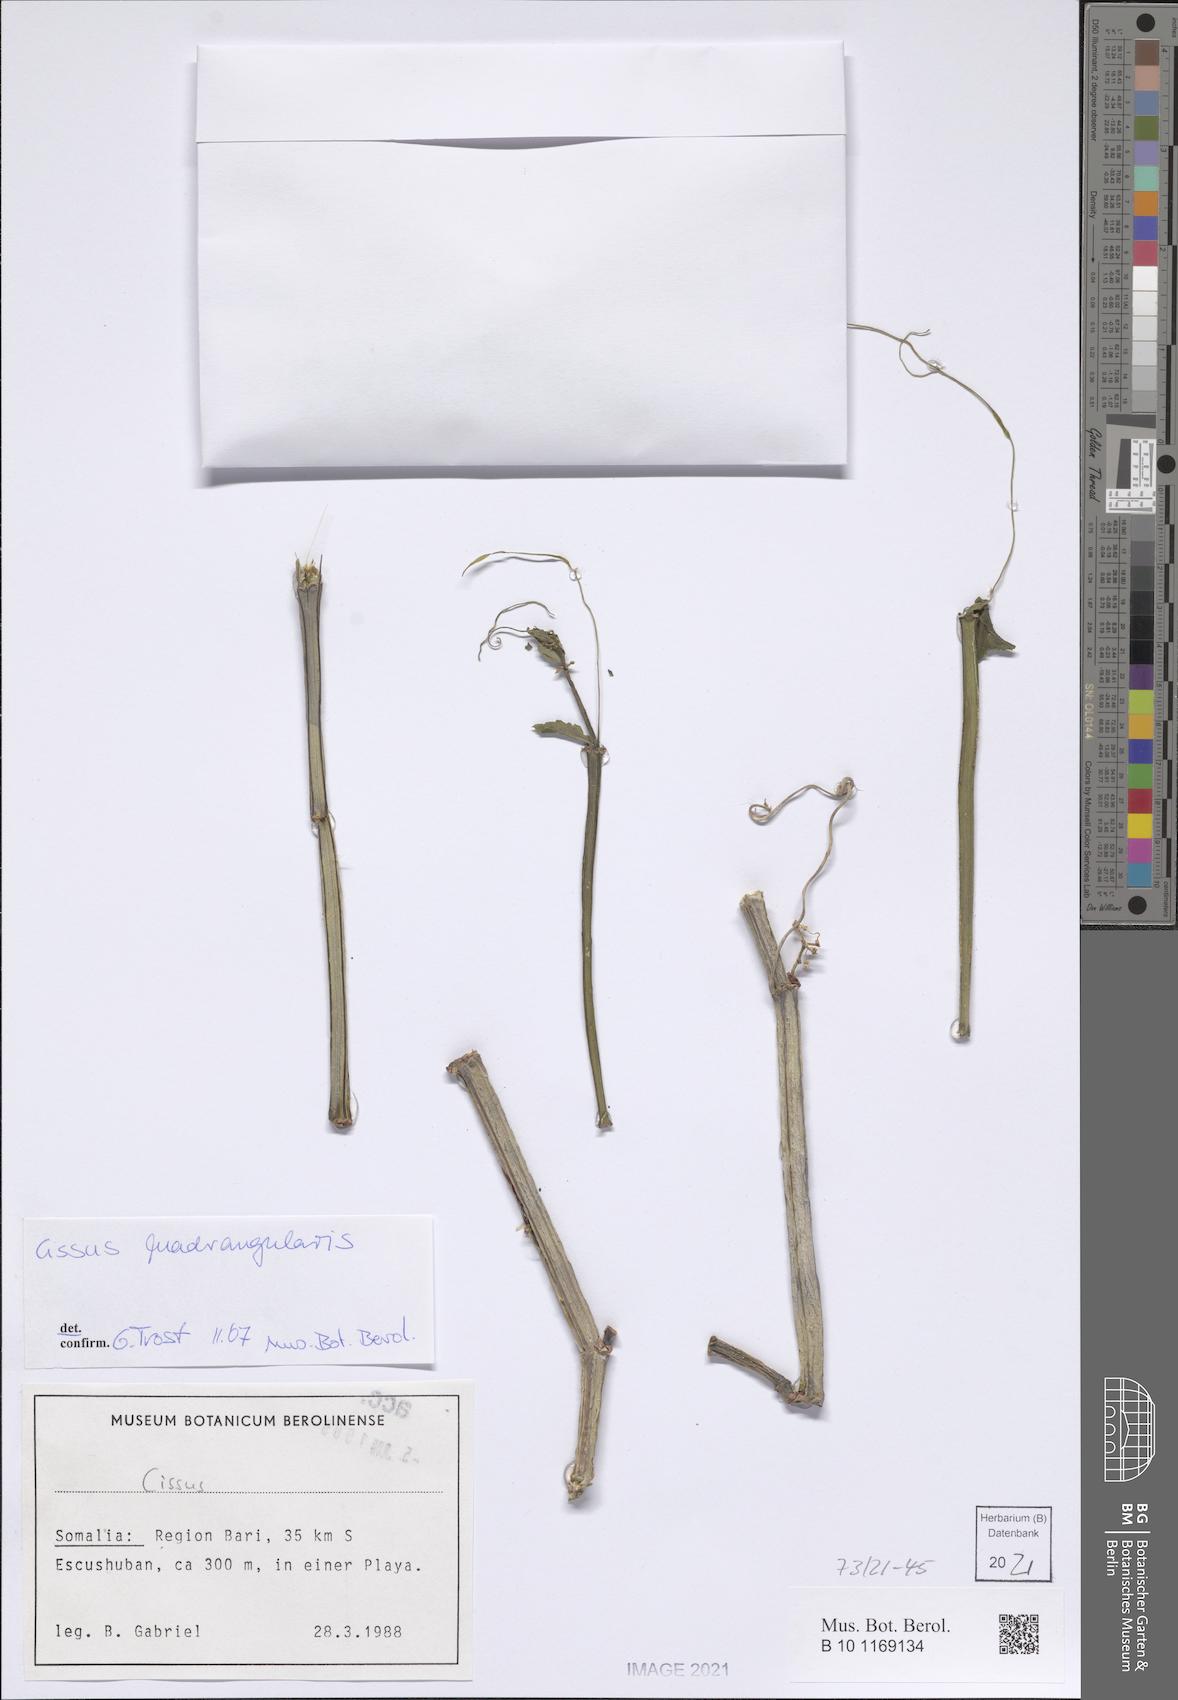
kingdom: Plantae
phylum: Tracheophyta
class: Magnoliopsida
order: Vitales
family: Vitaceae
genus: Cissus
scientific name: Cissus quadrangularis
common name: Veldt-grape
